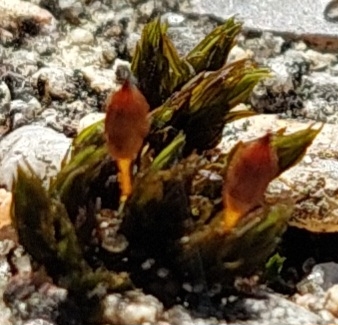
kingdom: Plantae
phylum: Bryophyta
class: Bryopsida
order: Orthotrichales
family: Orthotrichaceae
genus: Orthotrichum
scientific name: Orthotrichum anomalum
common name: Mørk furehætte
